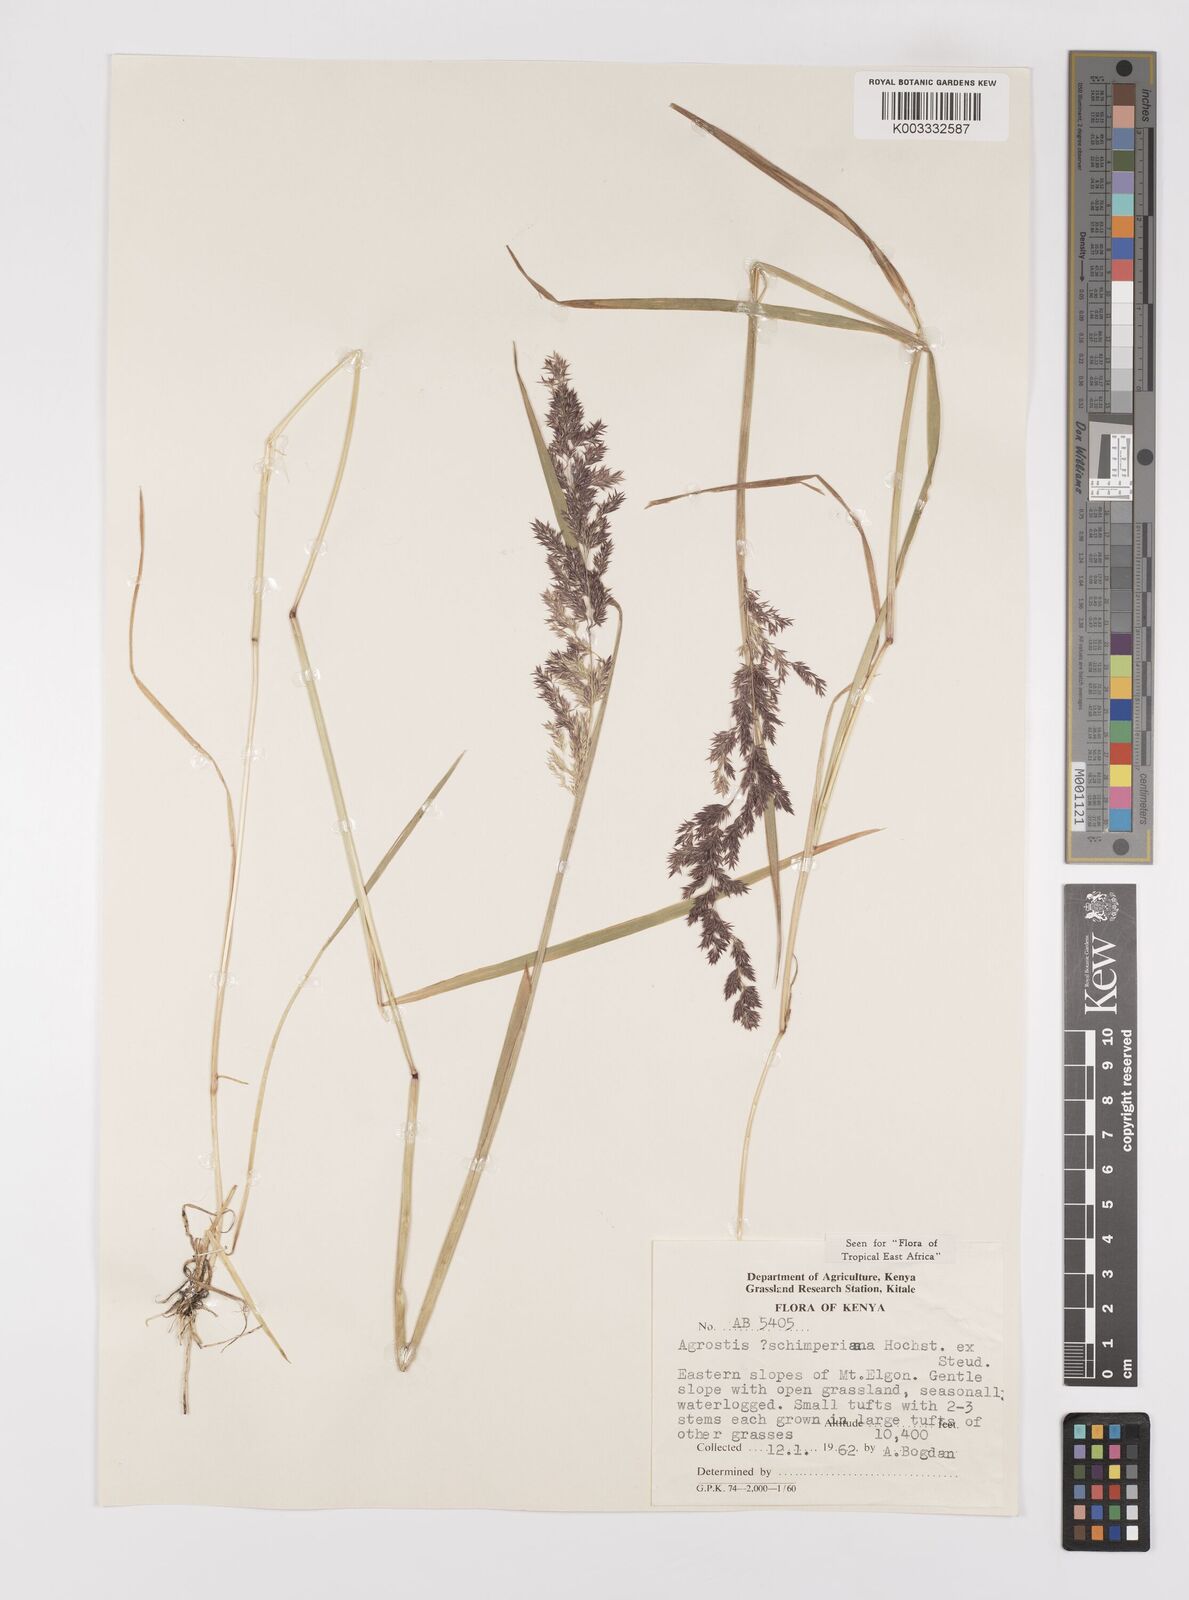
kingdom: Plantae
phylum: Tracheophyta
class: Liliopsida
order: Poales
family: Poaceae
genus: Polypogon
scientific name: Polypogon schimperianus
